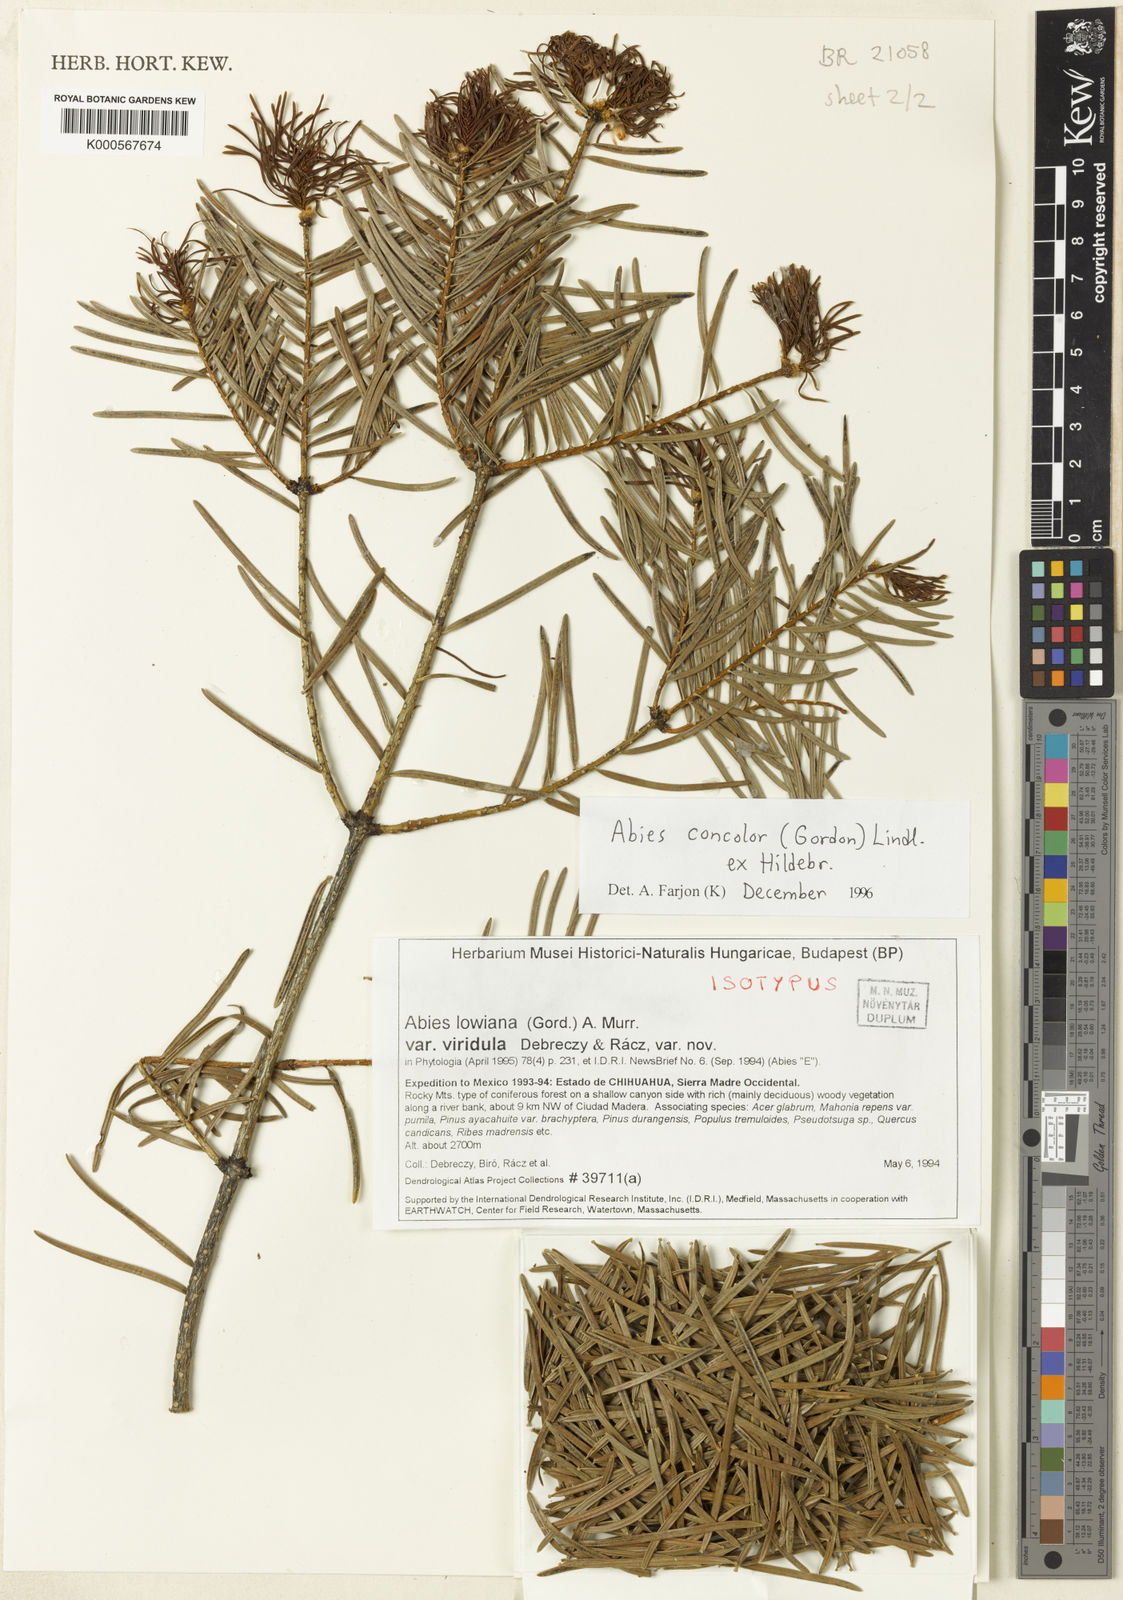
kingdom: Plantae
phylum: Tracheophyta
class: Pinopsida
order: Pinales
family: Pinaceae
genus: Abies
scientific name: Abies concolor
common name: Colorado fir
